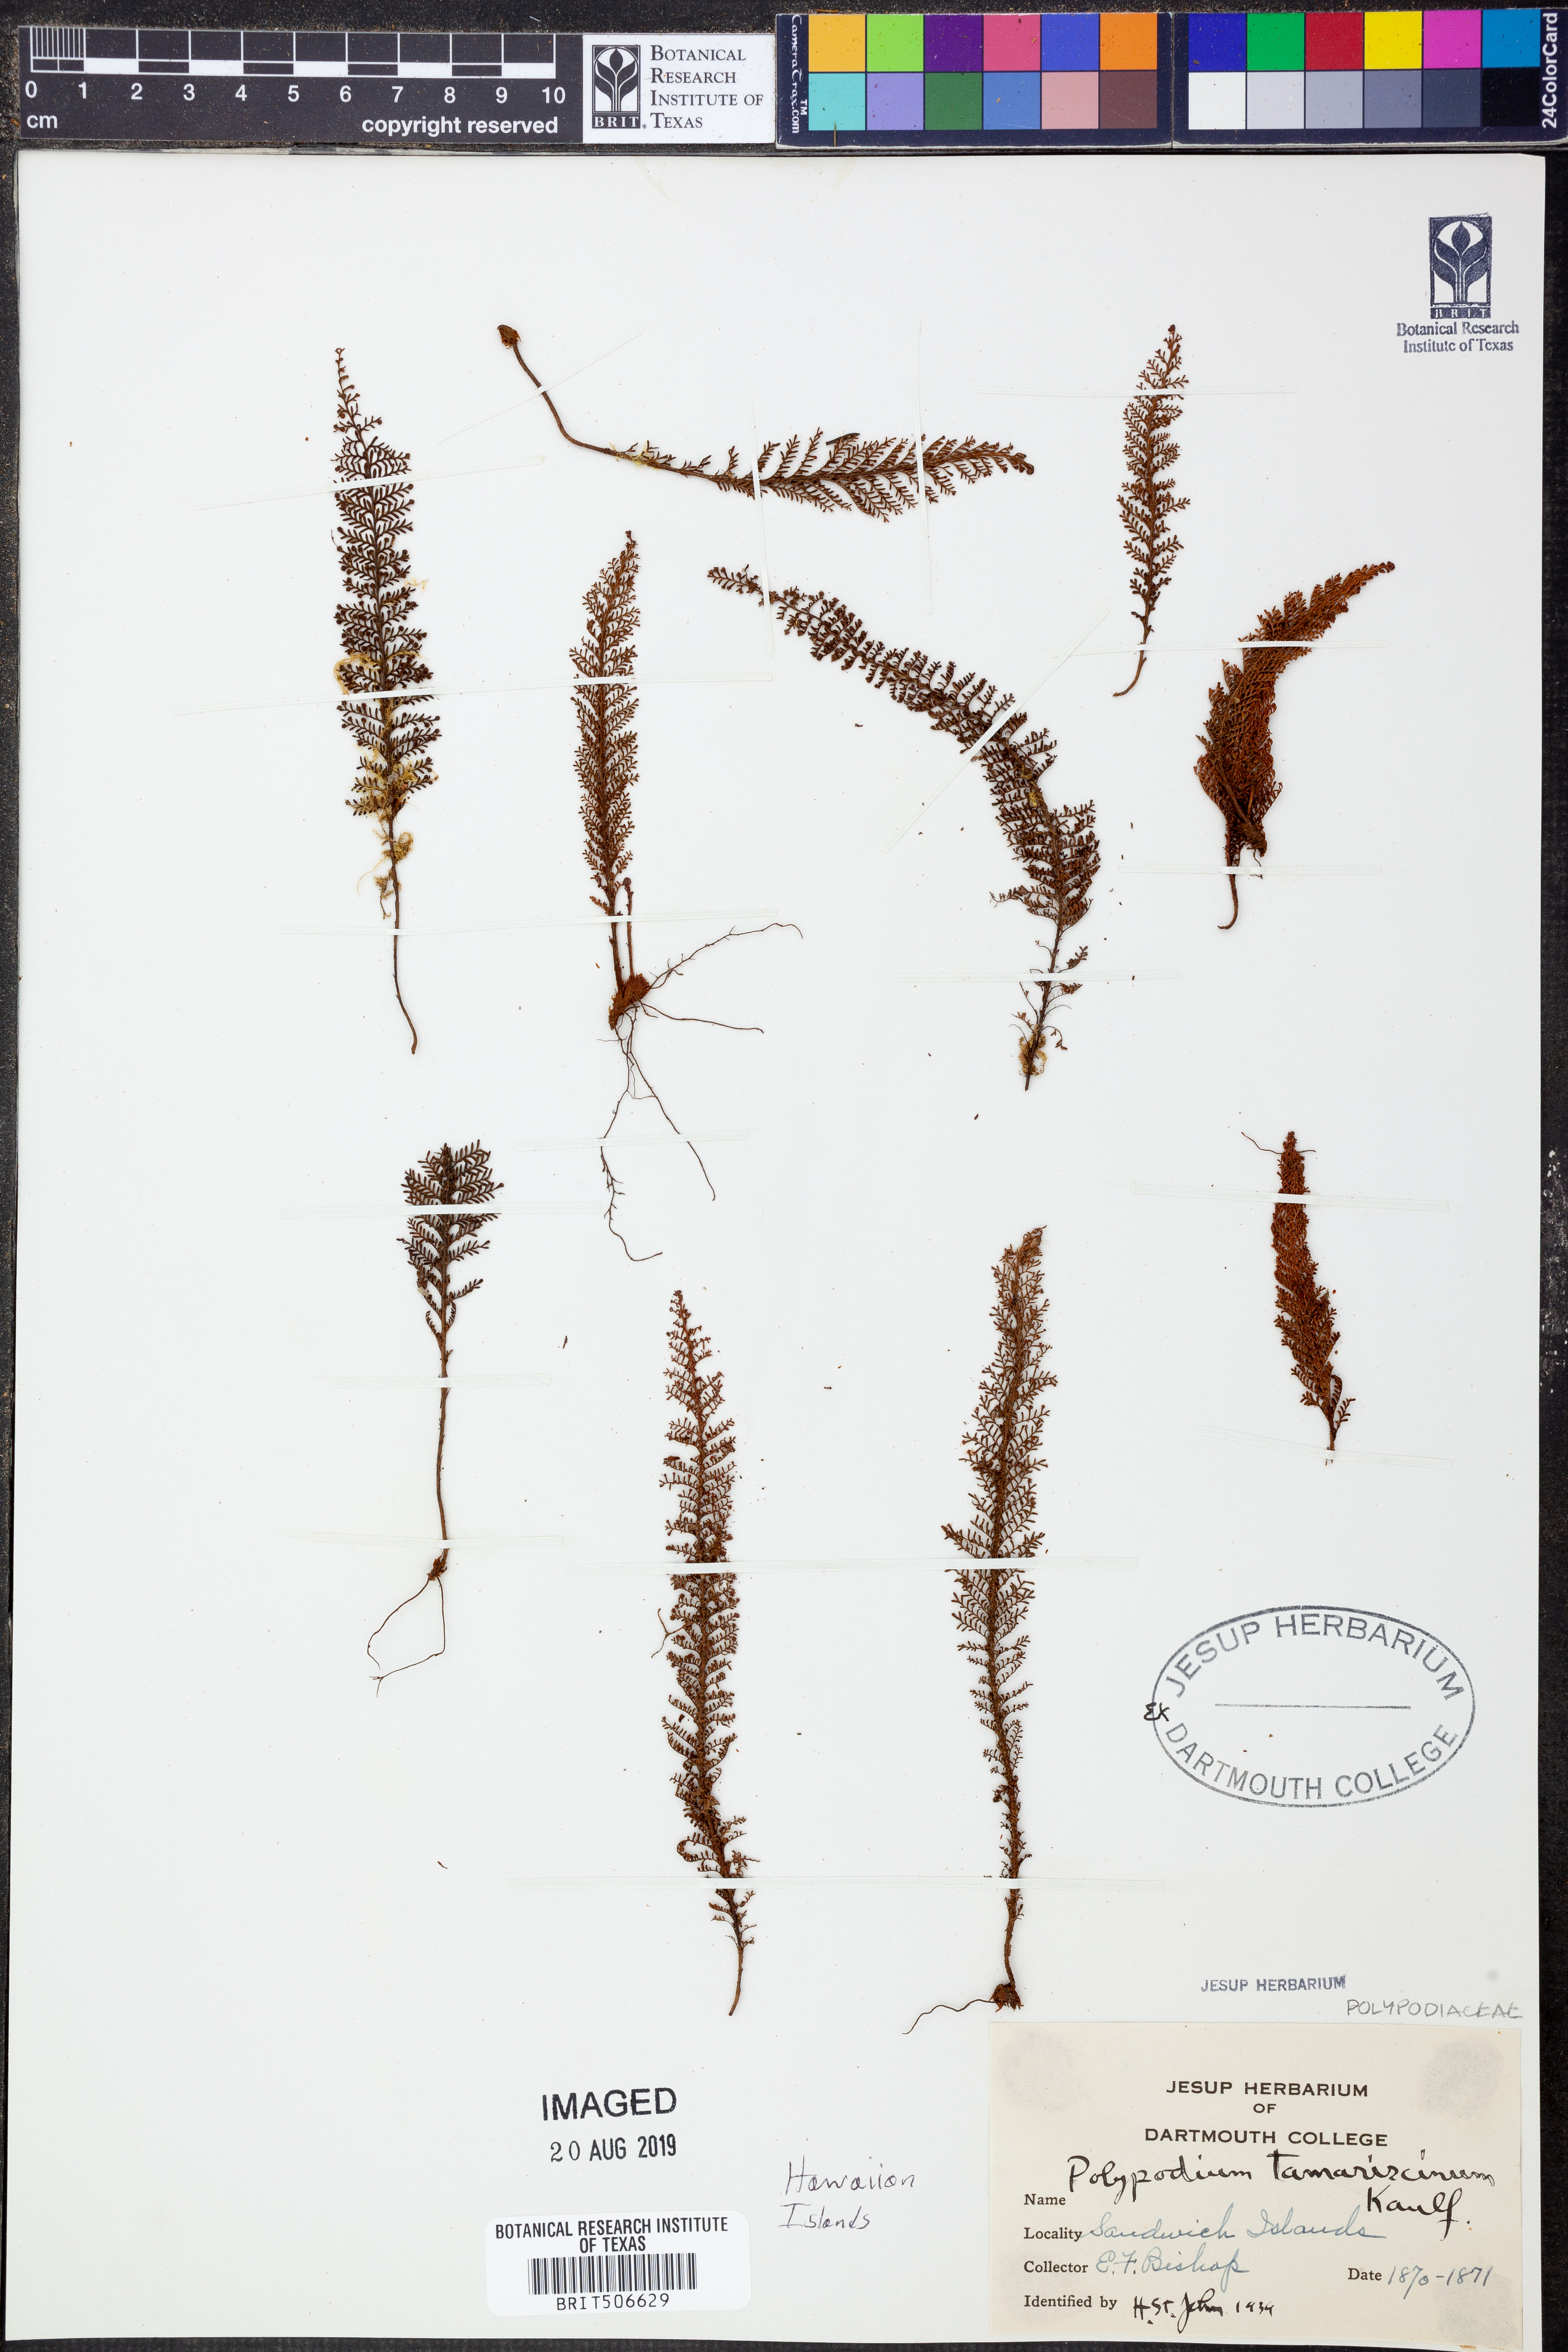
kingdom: Plantae
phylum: Tracheophyta
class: Polypodiopsida
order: Polypodiales
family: Polypodiaceae
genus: Adenophorus
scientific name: Adenophorus tamariscinus
